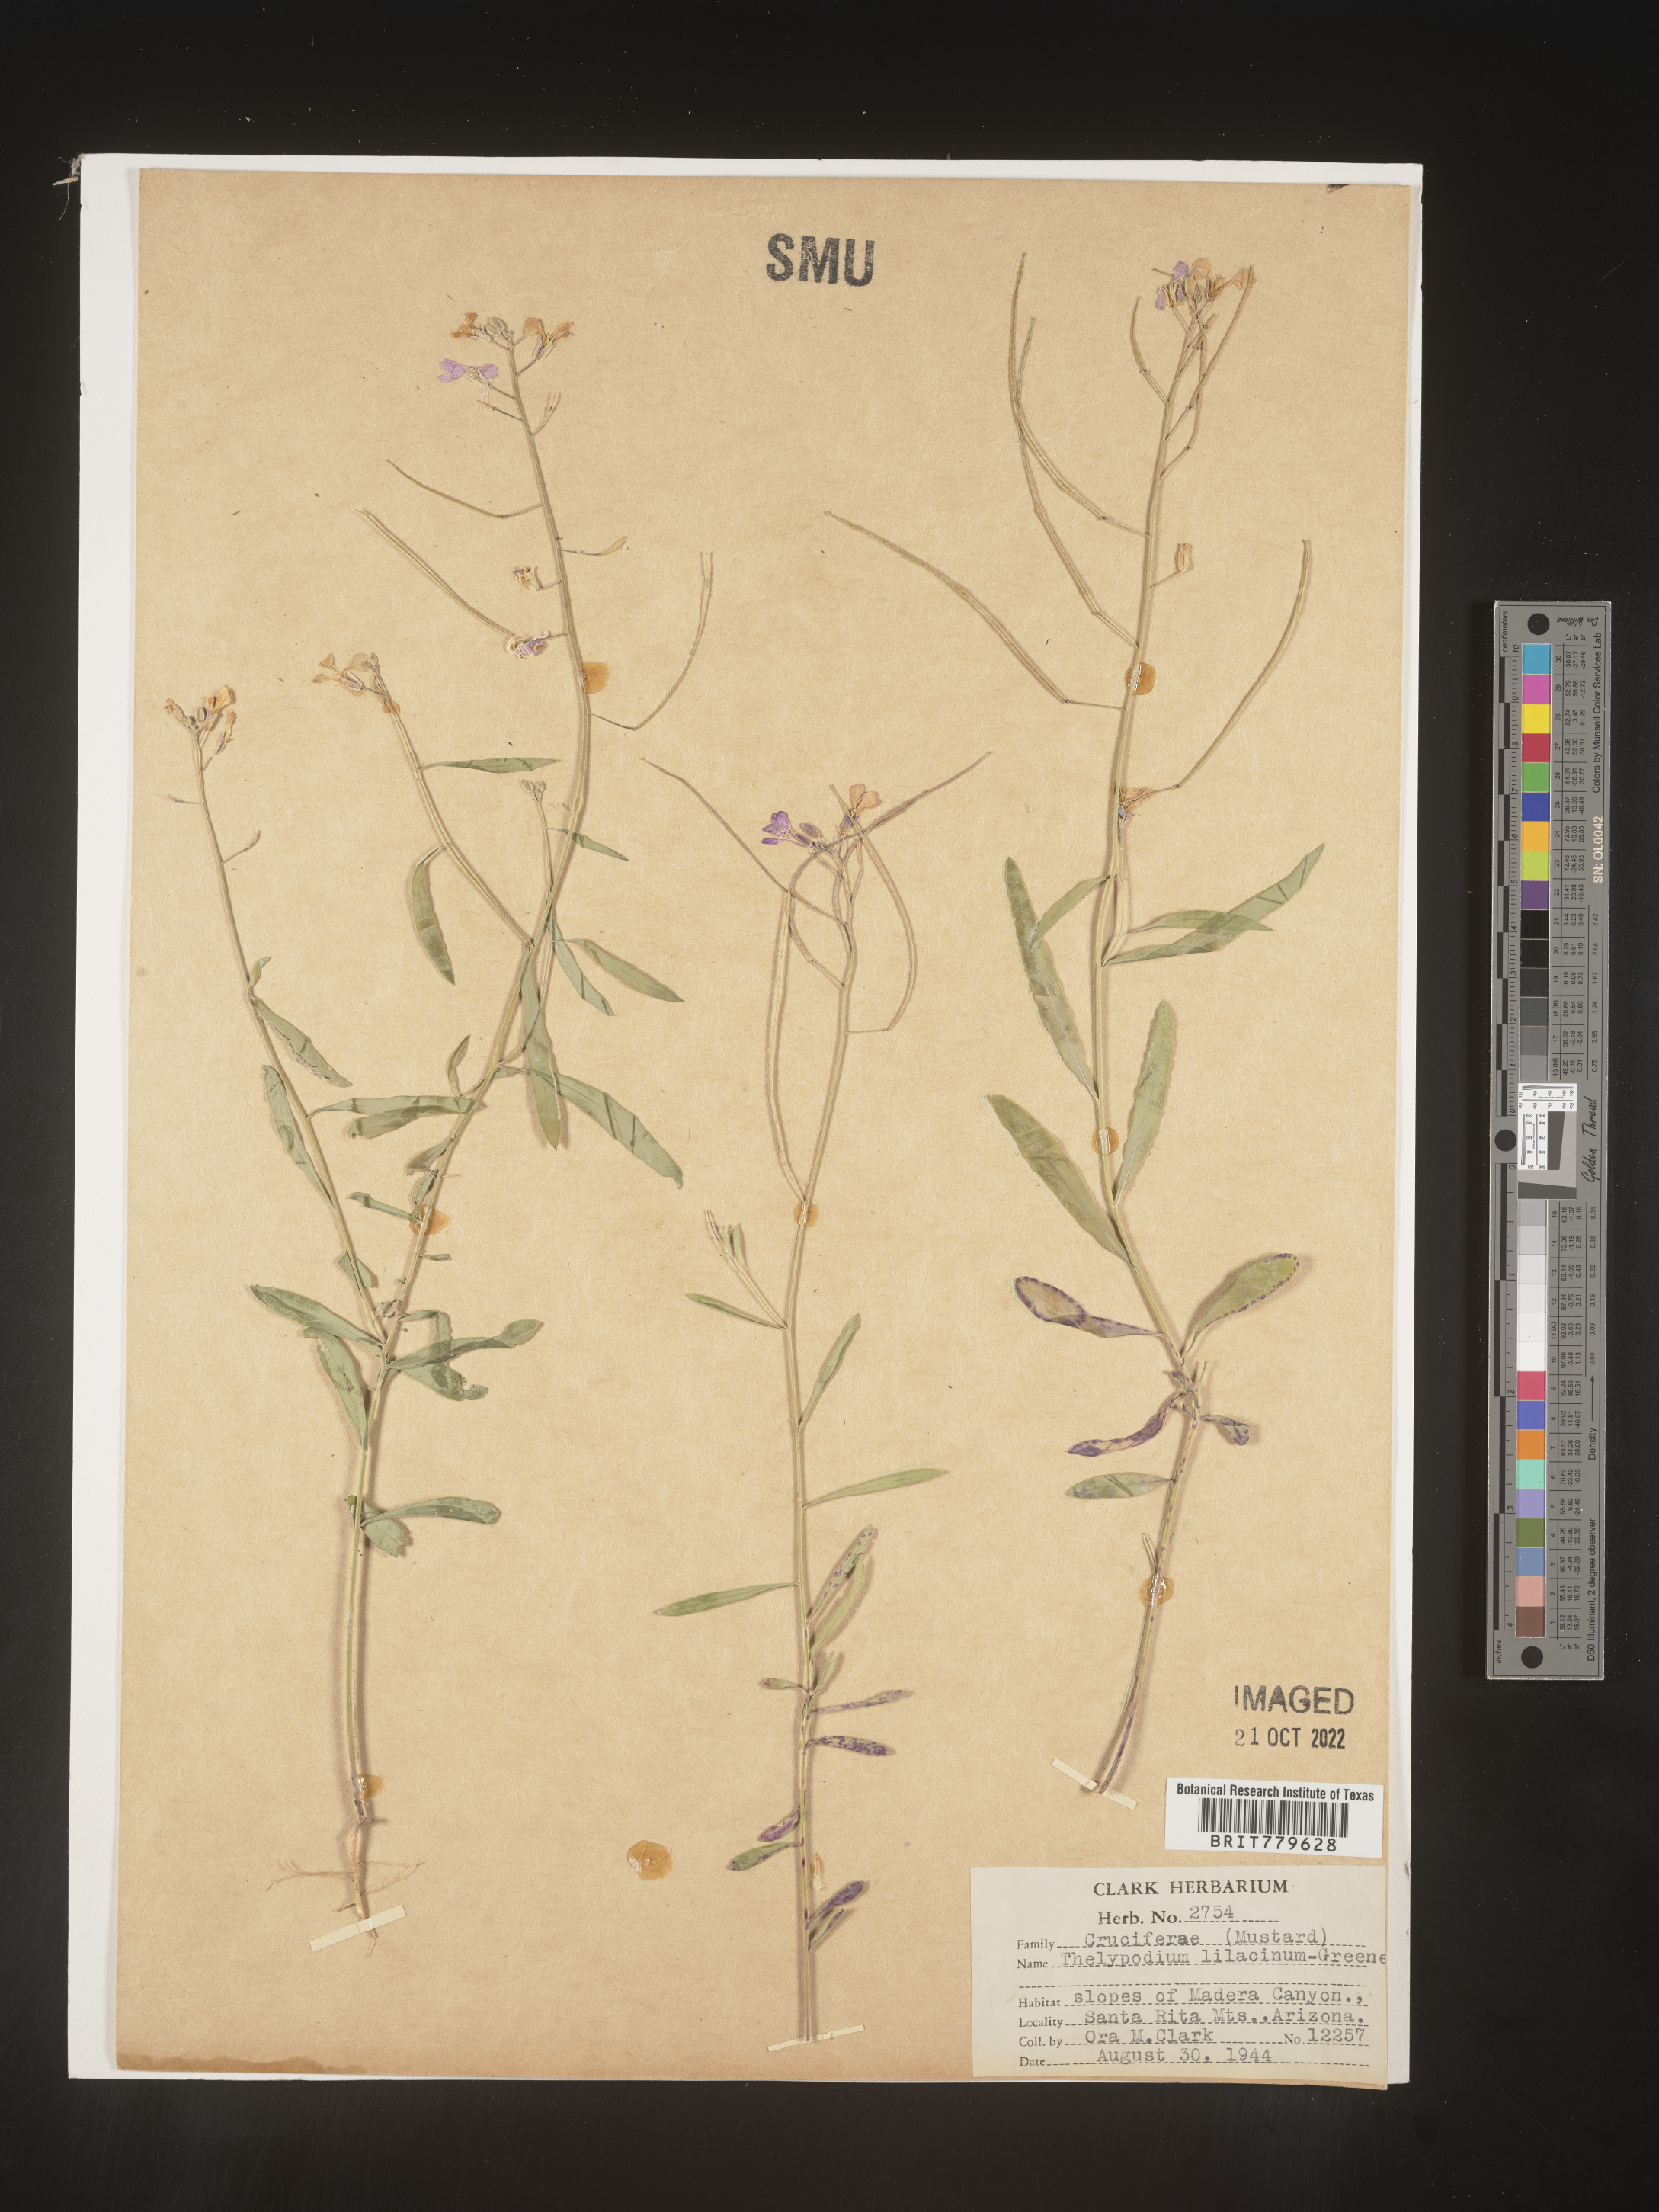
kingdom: Plantae
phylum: Tracheophyta
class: Magnoliopsida
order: Brassicales
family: Brassicaceae
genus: Thelypodium
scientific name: Thelypodium
